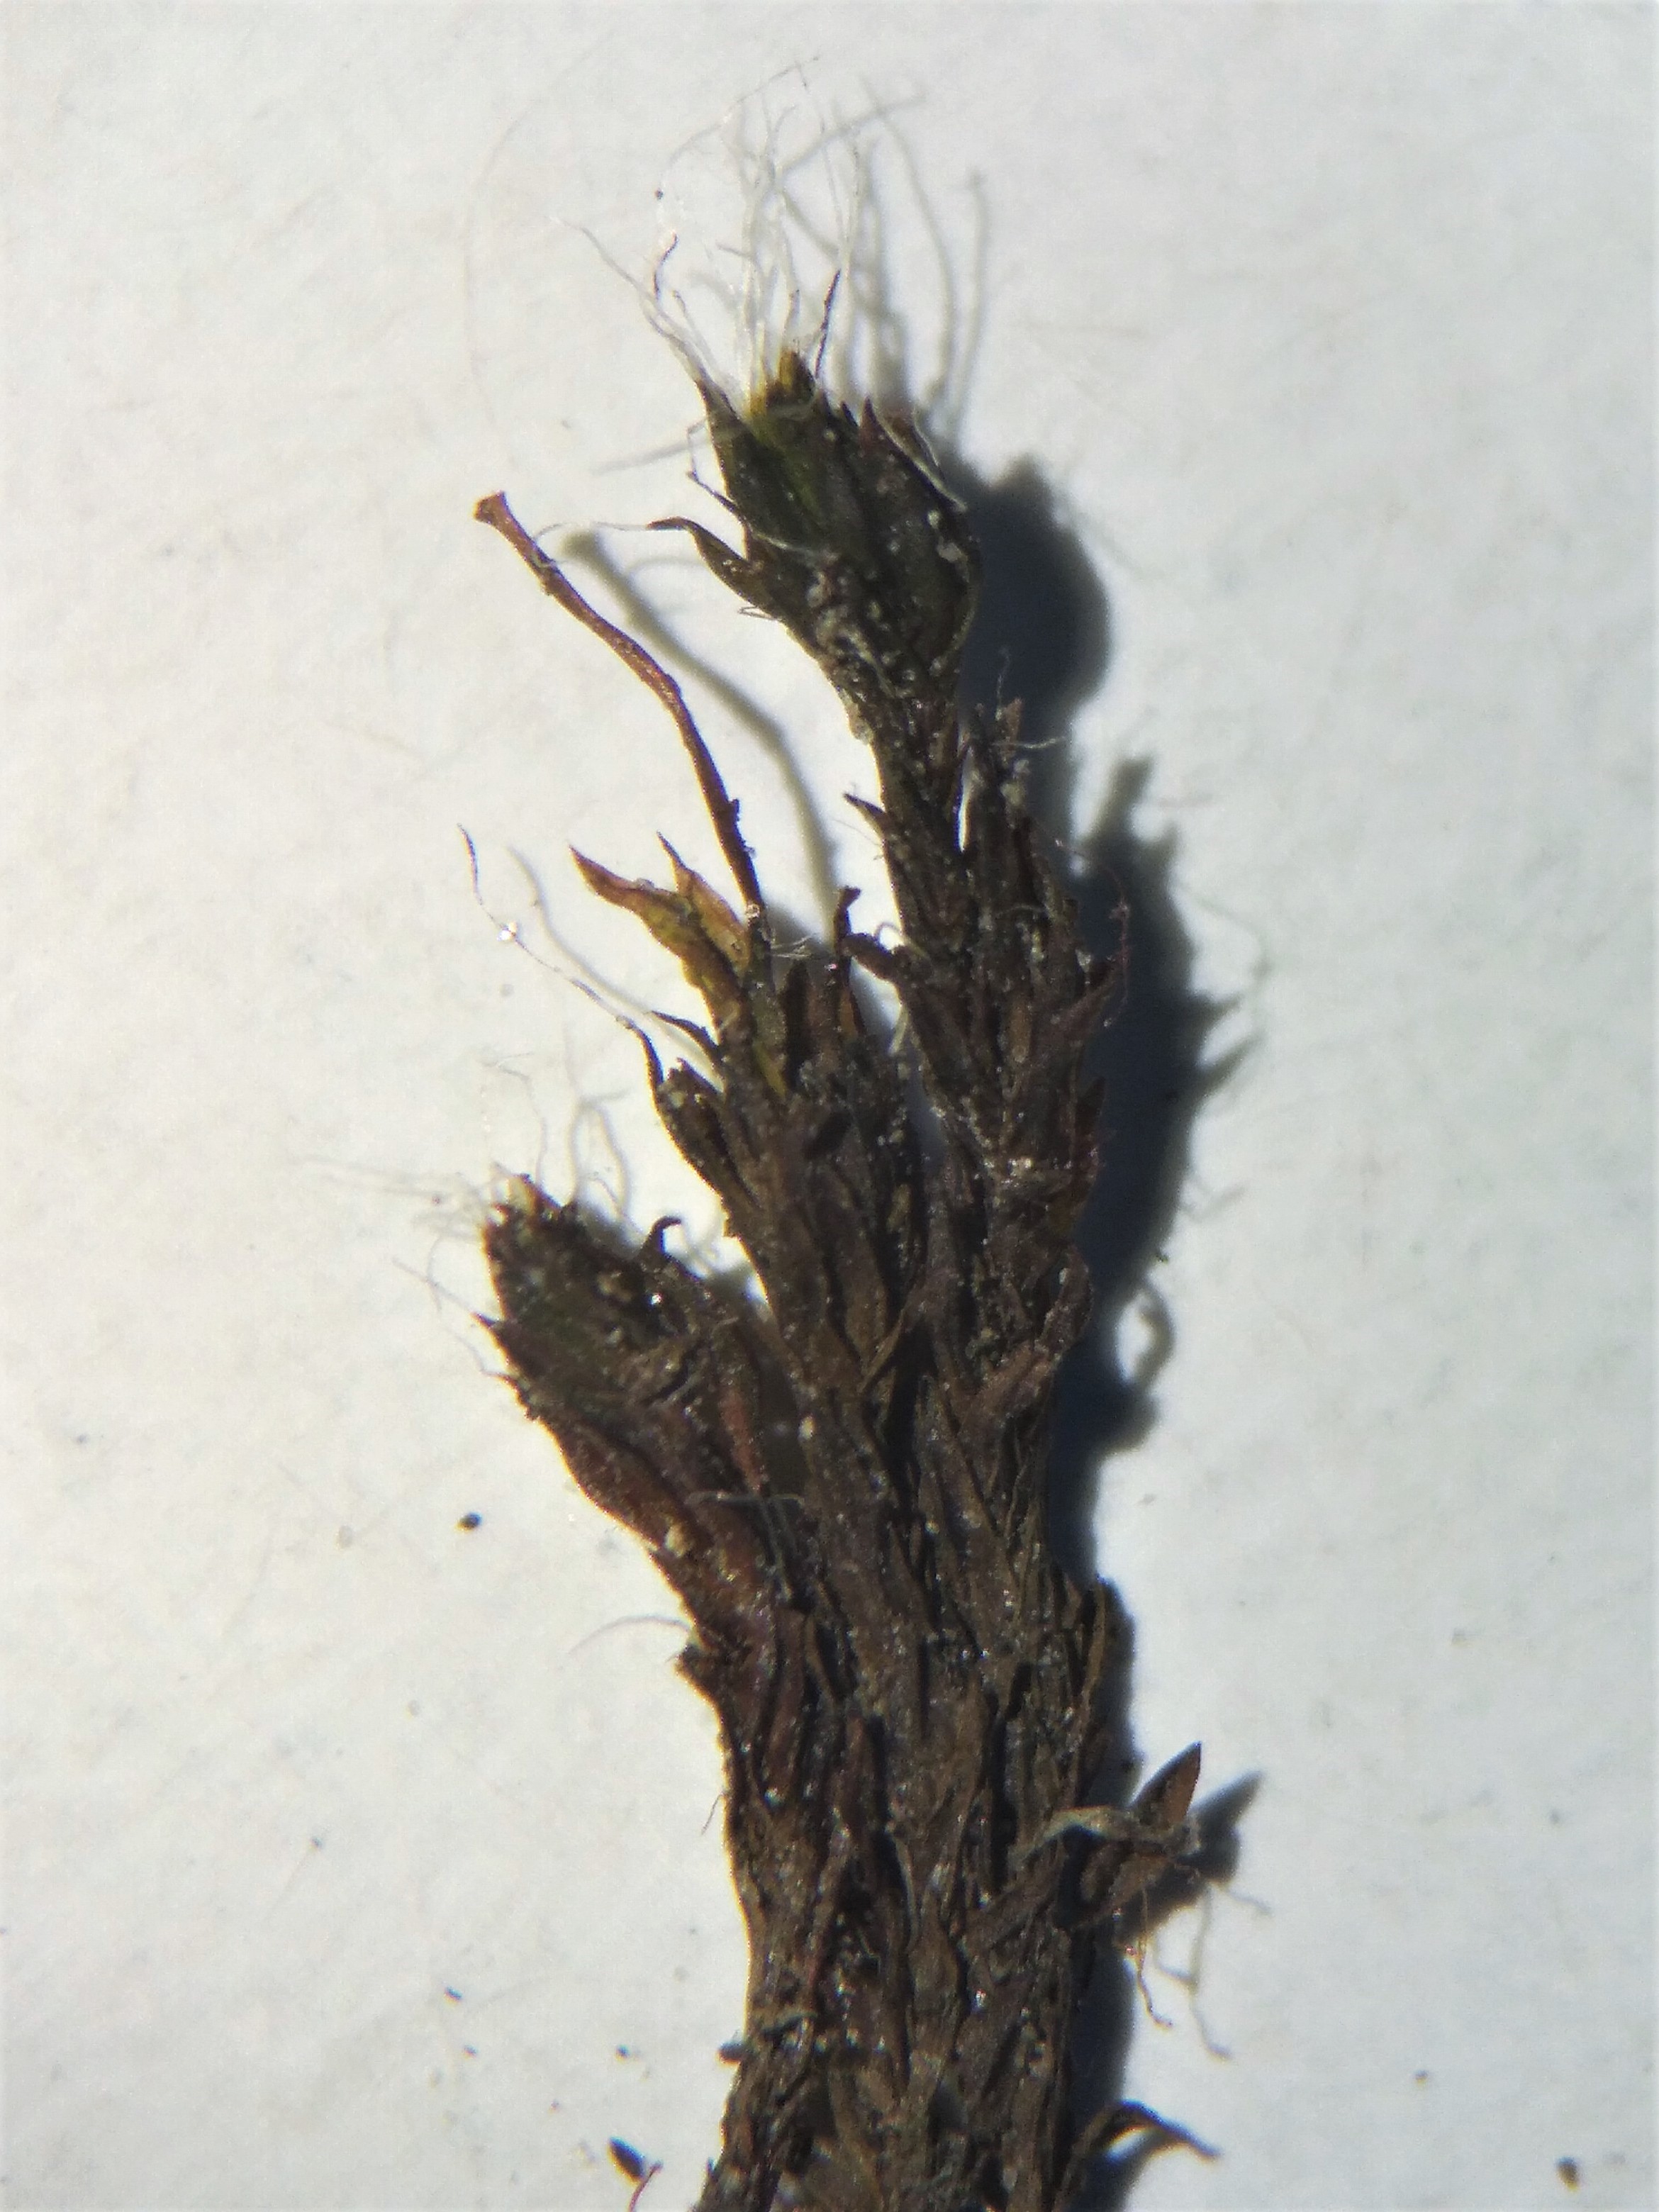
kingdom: Plantae
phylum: Bryophyta
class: Bryopsida
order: Pottiales
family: Pottiaceae
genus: Syntrichia
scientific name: Syntrichia laevipila
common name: Træ-hårstjerne
